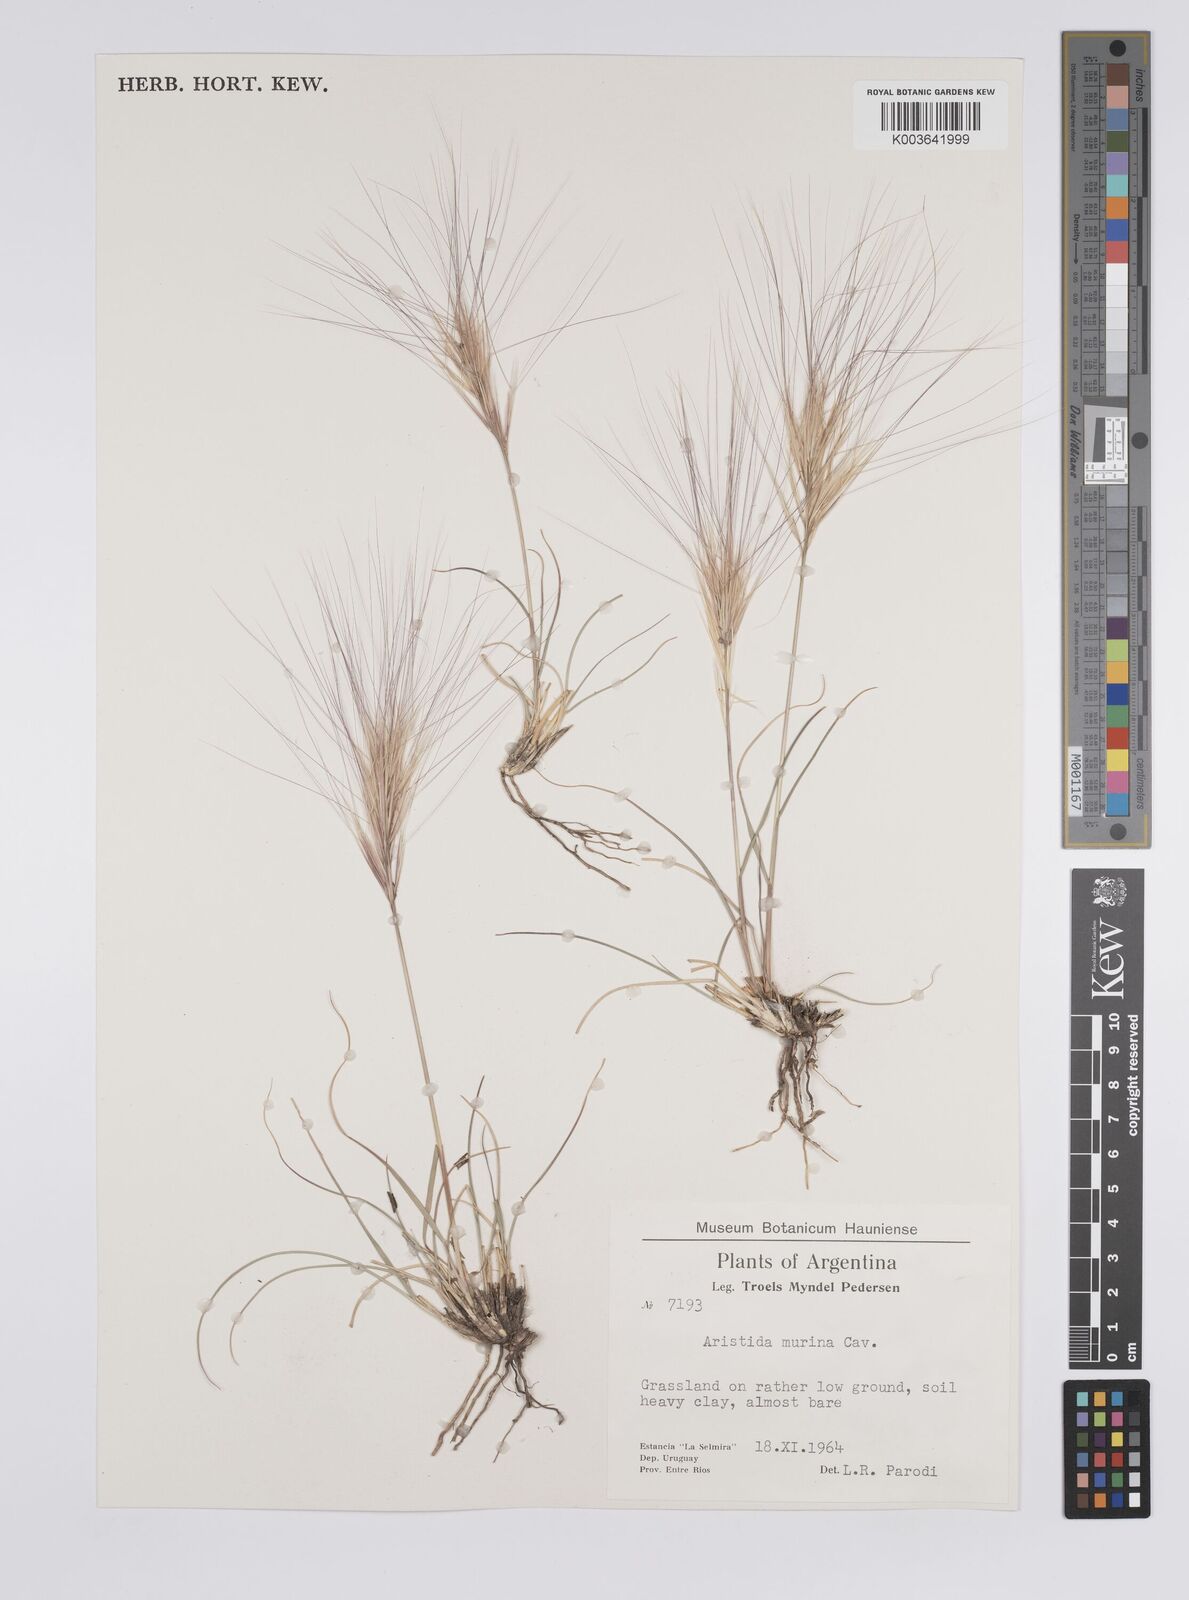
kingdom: Plantae
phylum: Tracheophyta
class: Liliopsida
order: Poales
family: Poaceae
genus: Aristida
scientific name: Aristida murina
